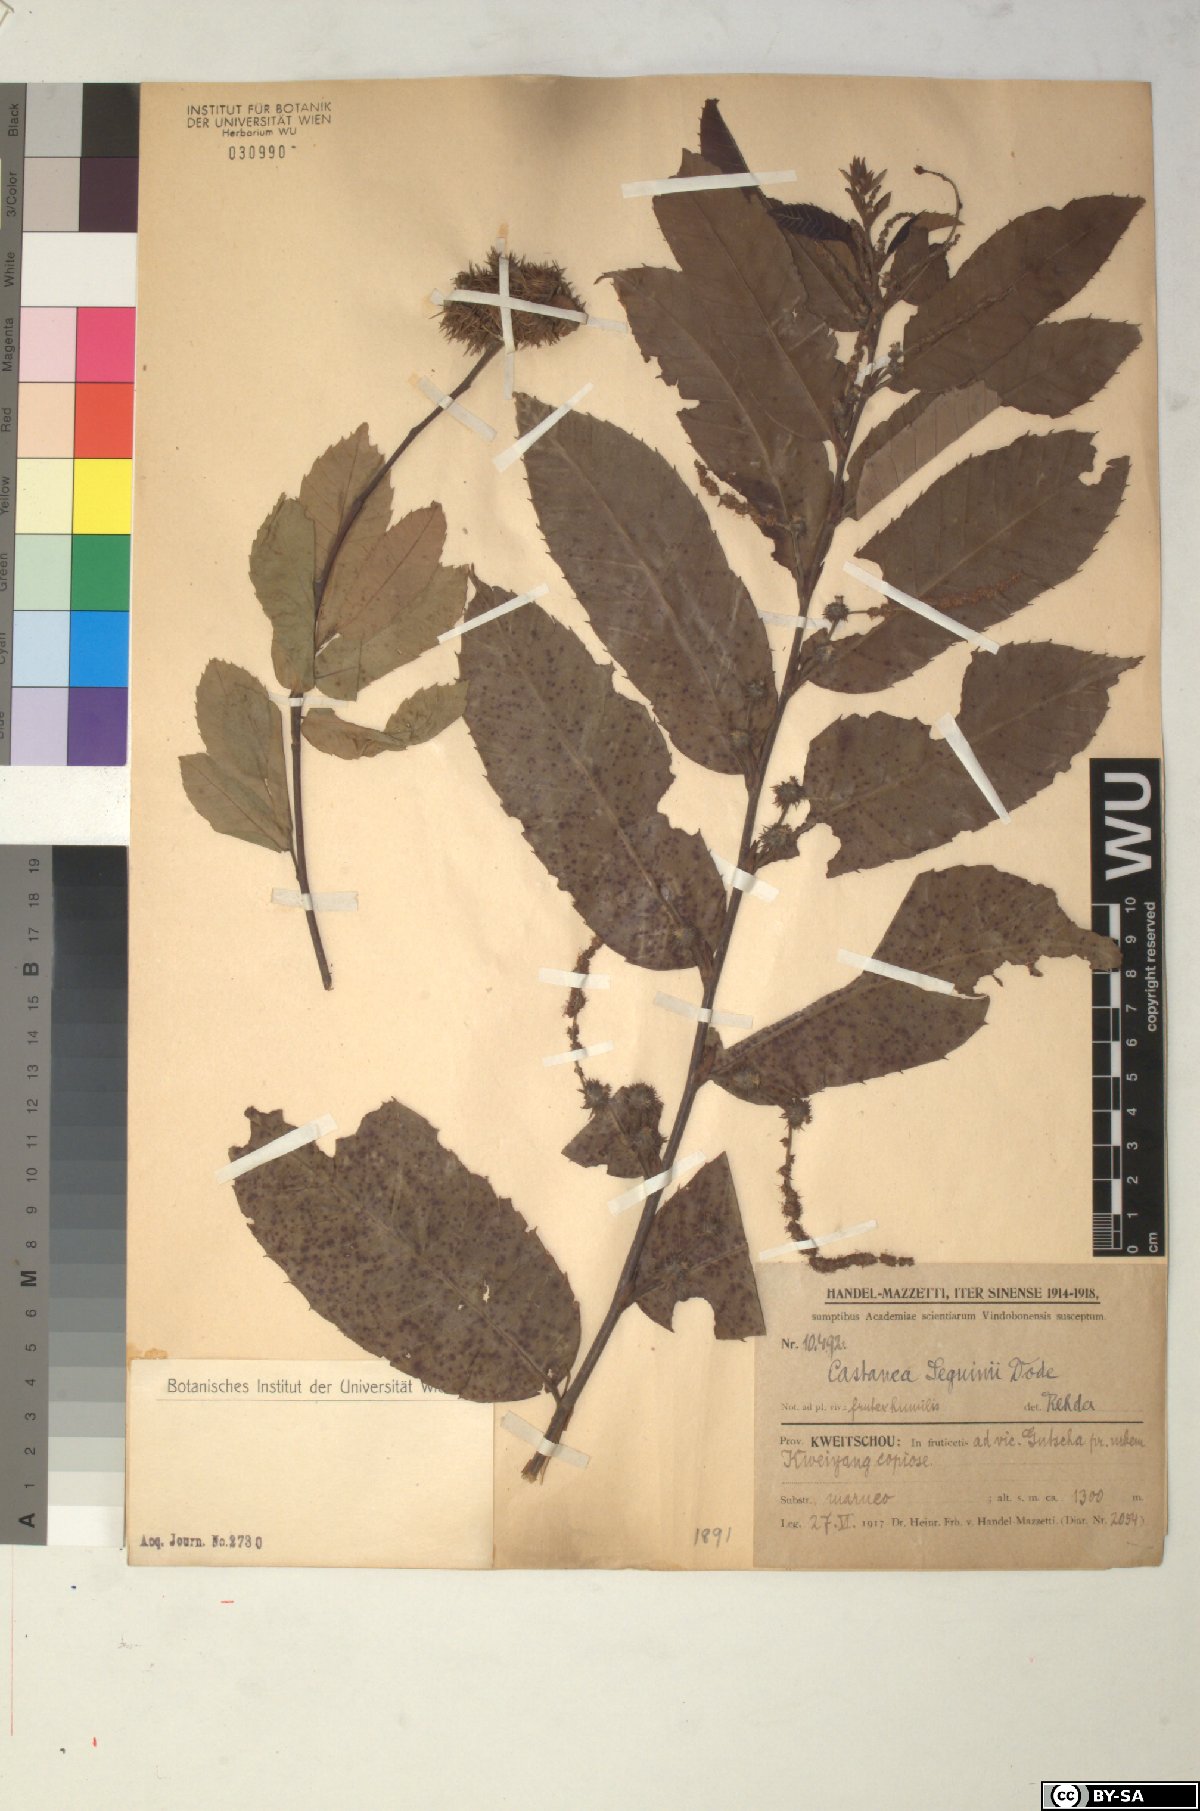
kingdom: Plantae
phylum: Tracheophyta
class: Magnoliopsida
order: Fagales
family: Fagaceae
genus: Castanea
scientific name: Castanea seguinii
